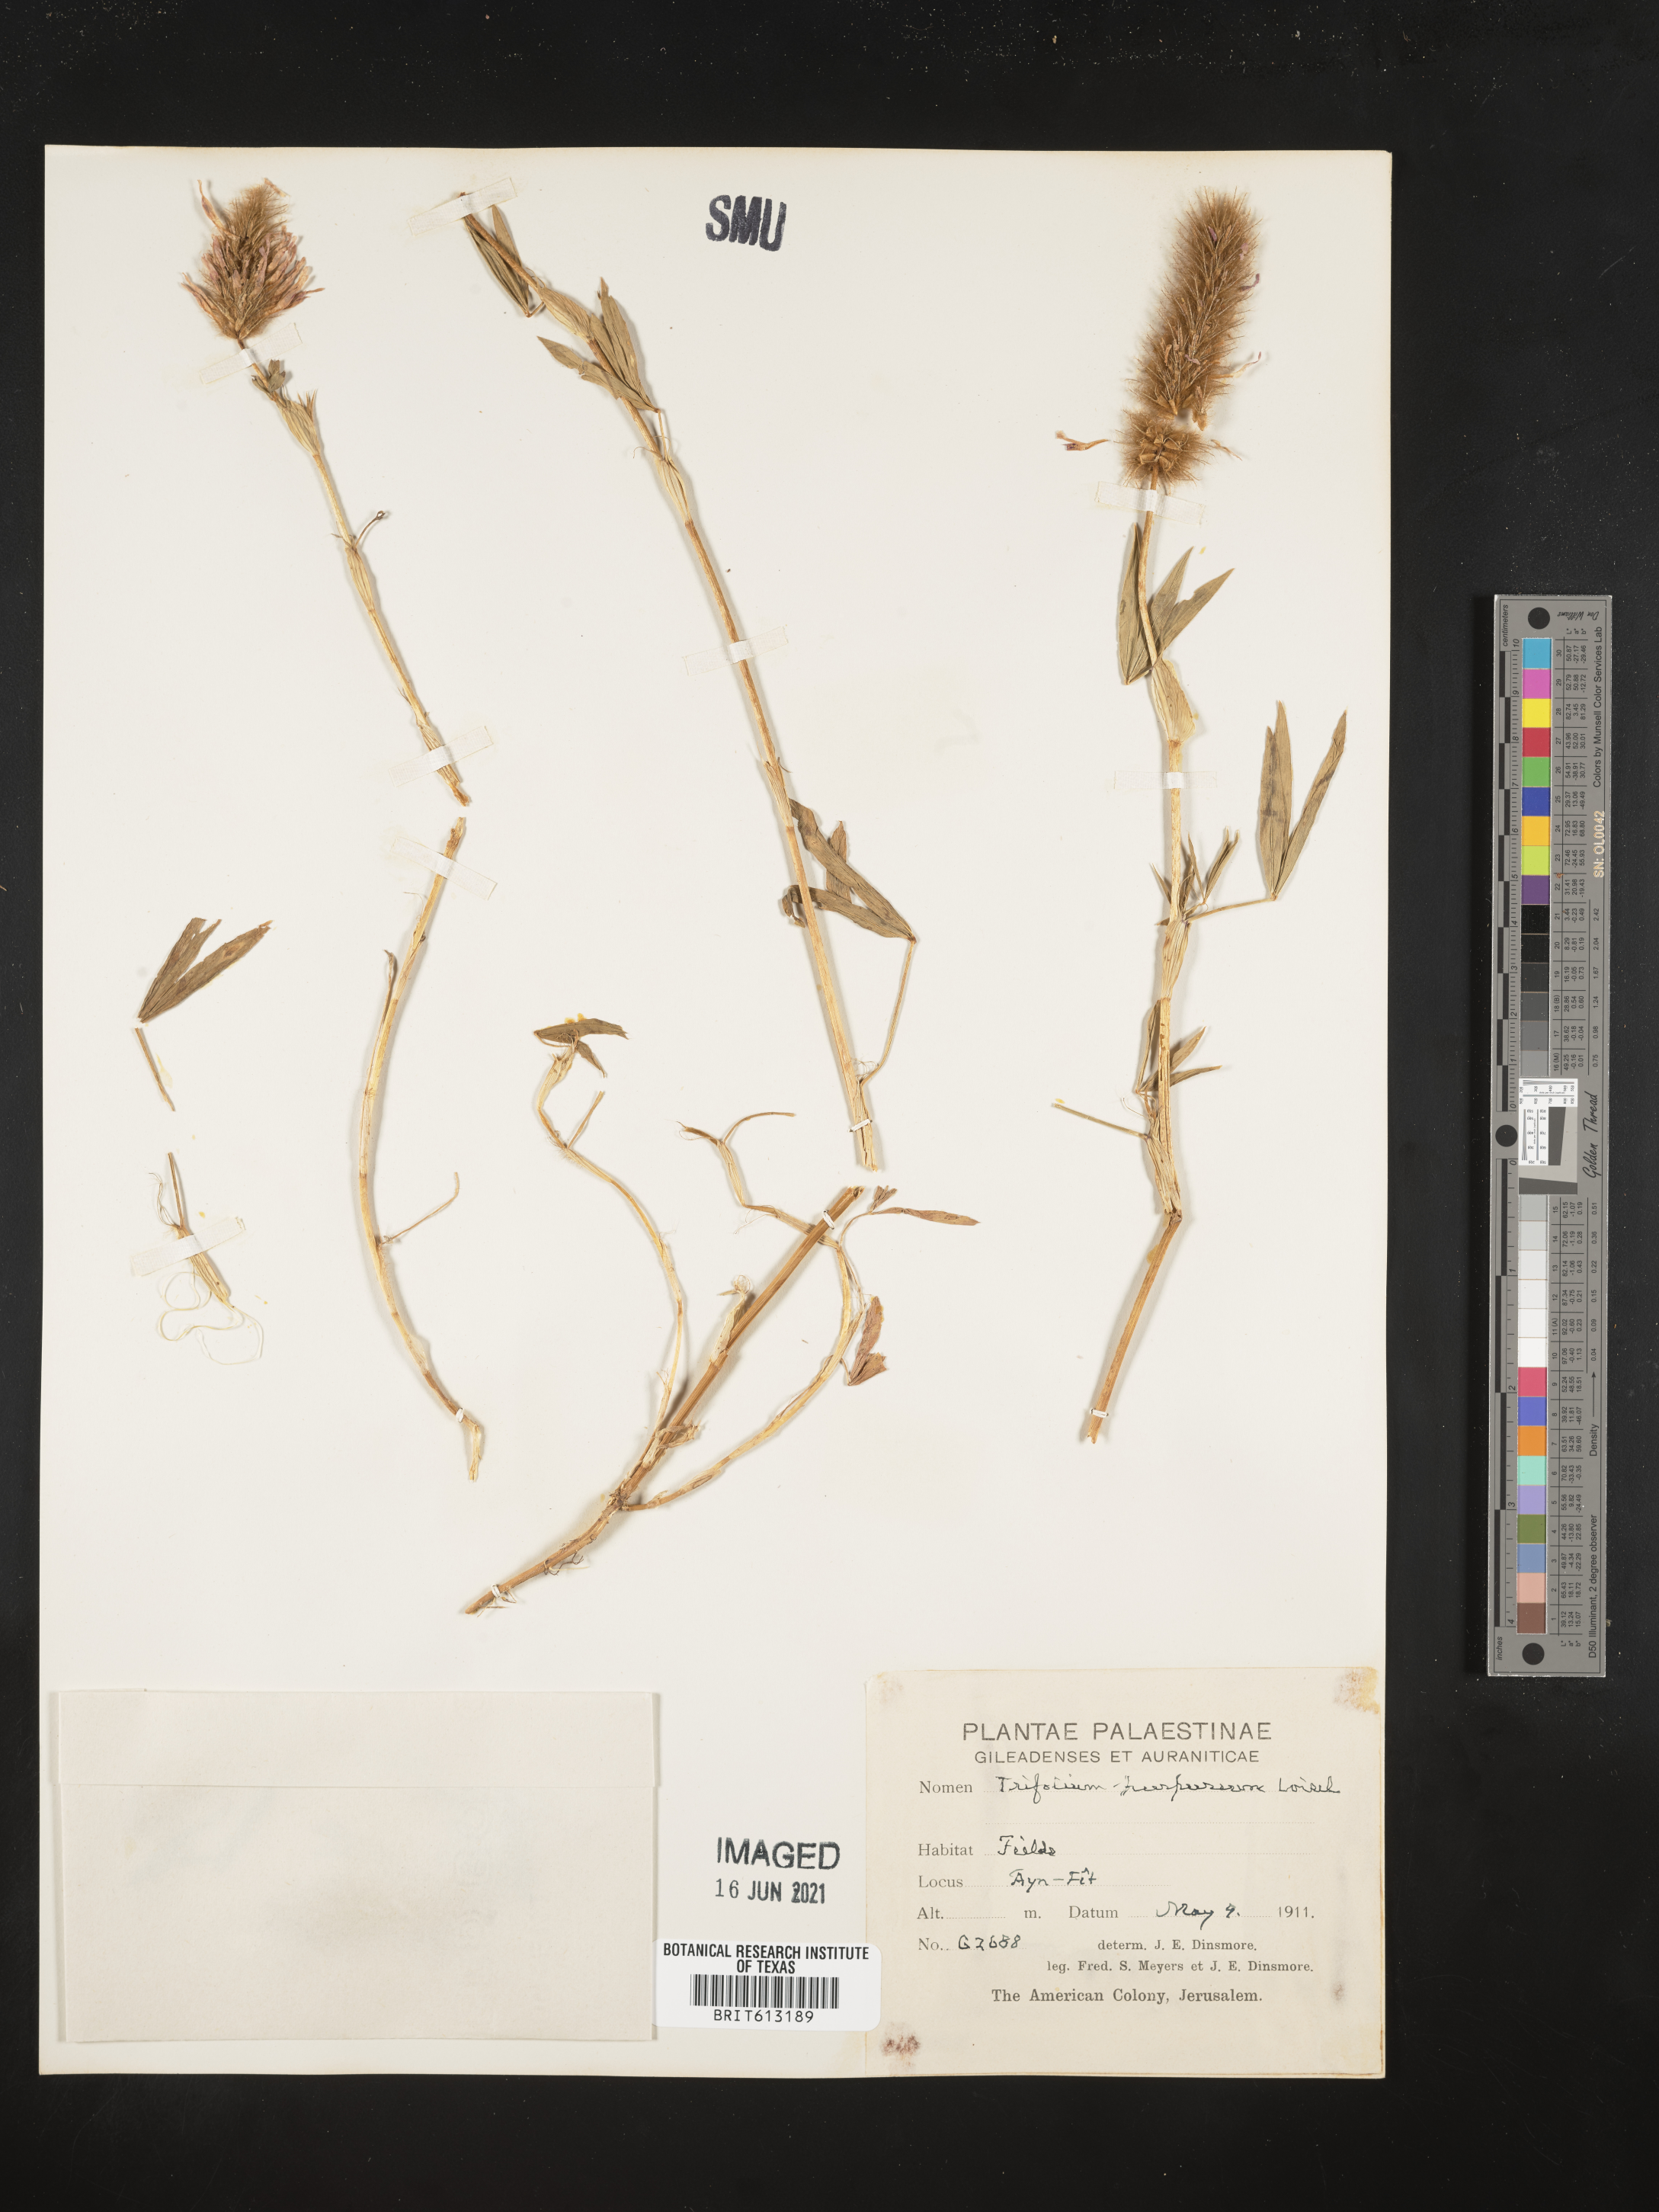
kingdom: Plantae
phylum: Tracheophyta
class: Magnoliopsida
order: Fabales
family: Fabaceae
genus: Trifolium
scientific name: Trifolium
